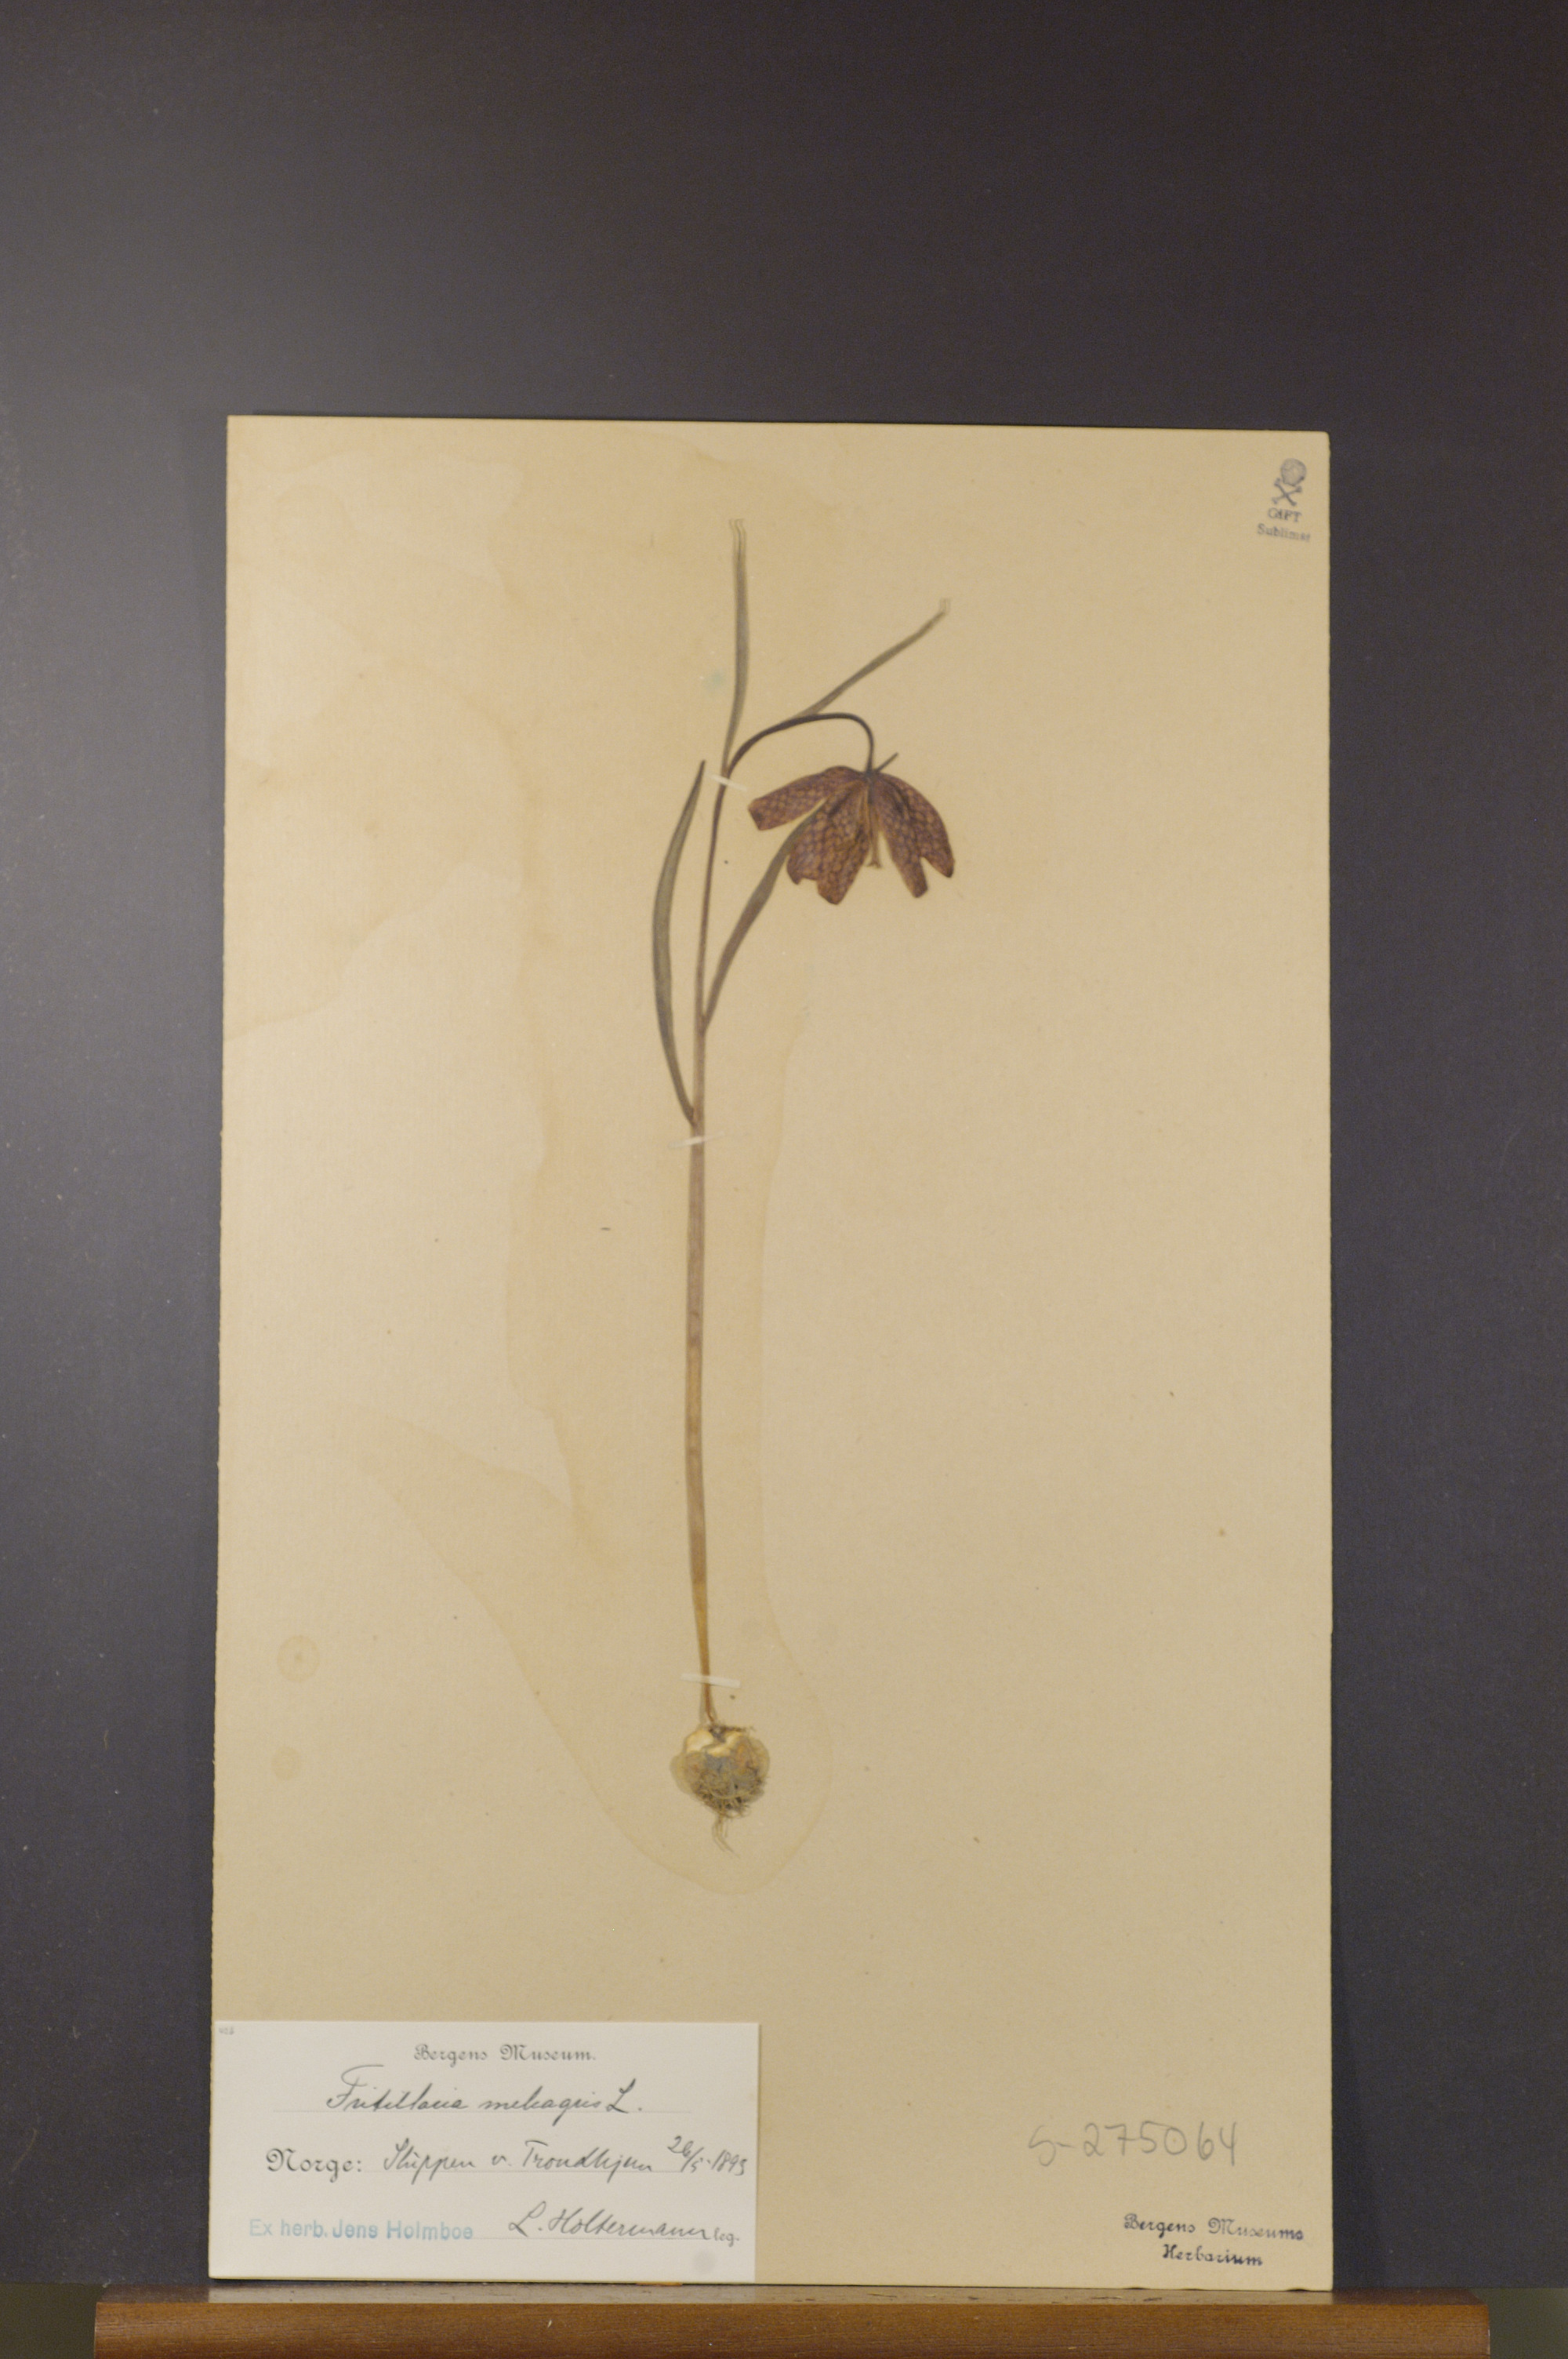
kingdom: Plantae
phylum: Tracheophyta
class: Liliopsida
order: Liliales
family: Liliaceae
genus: Fritillaria
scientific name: Fritillaria meleagris
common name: Fritillary
